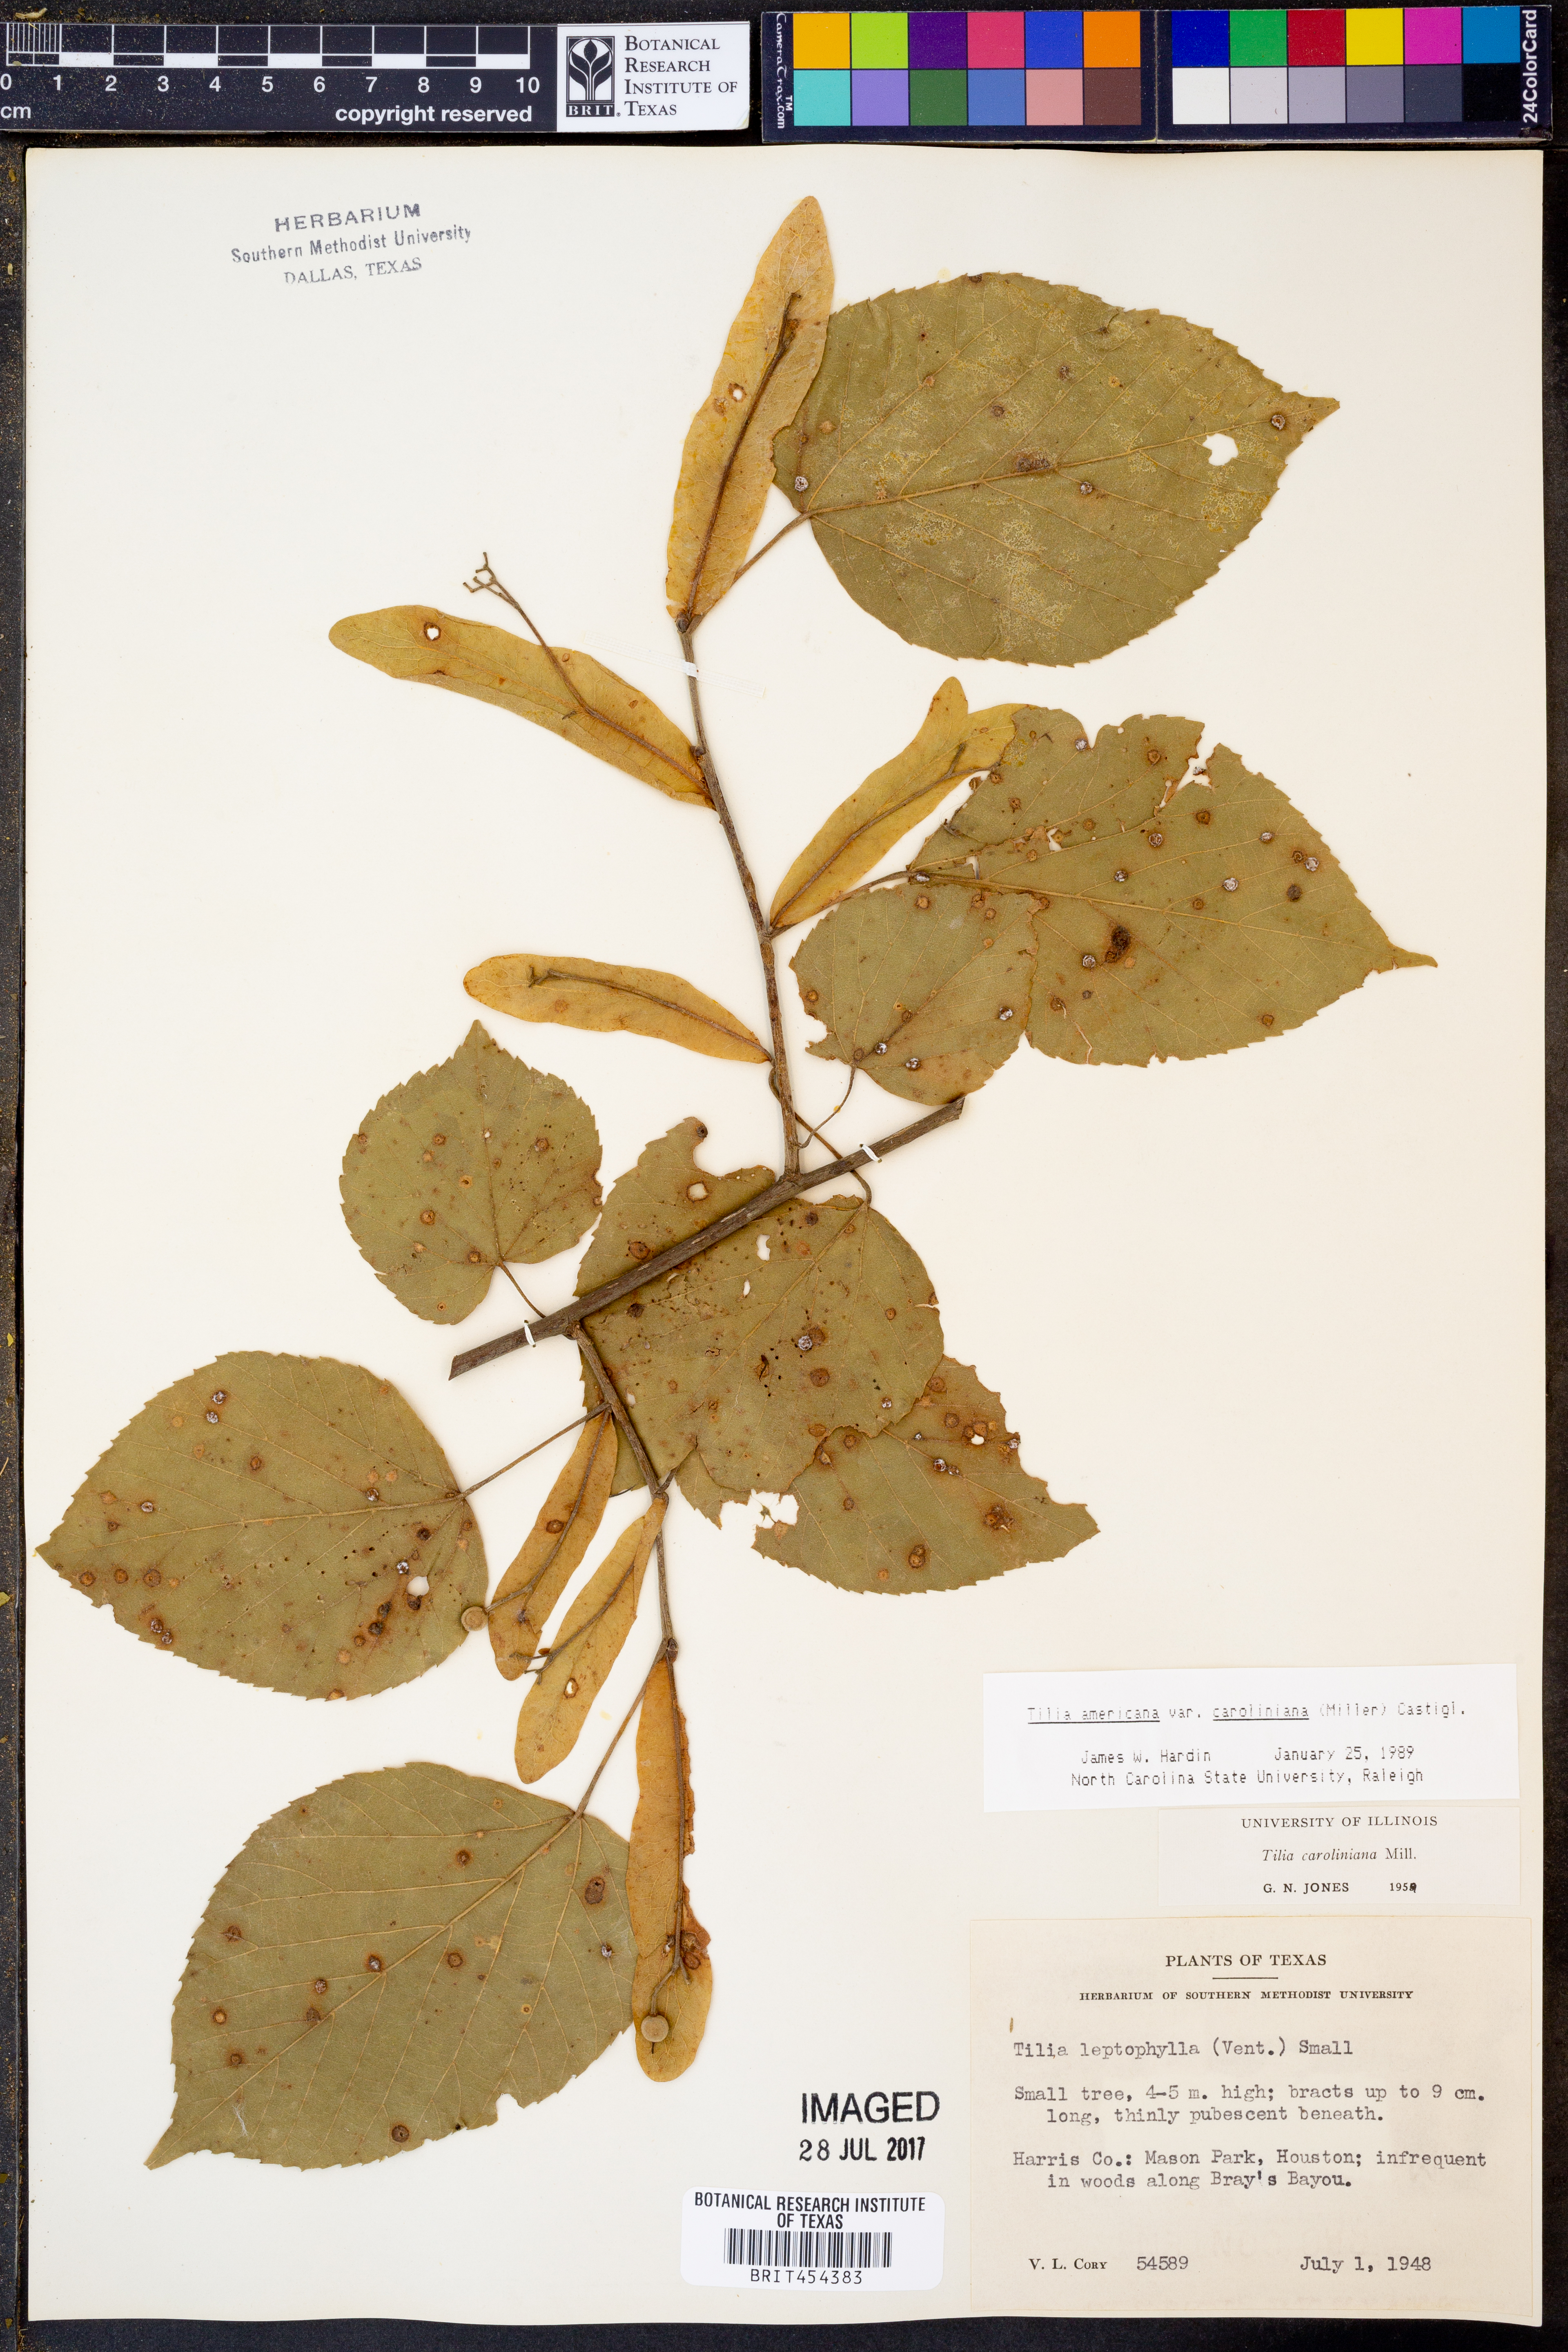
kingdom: Plantae
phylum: Tracheophyta
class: Magnoliopsida
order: Malvales
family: Malvaceae
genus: Tilia
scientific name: Tilia americana
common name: Basswood
